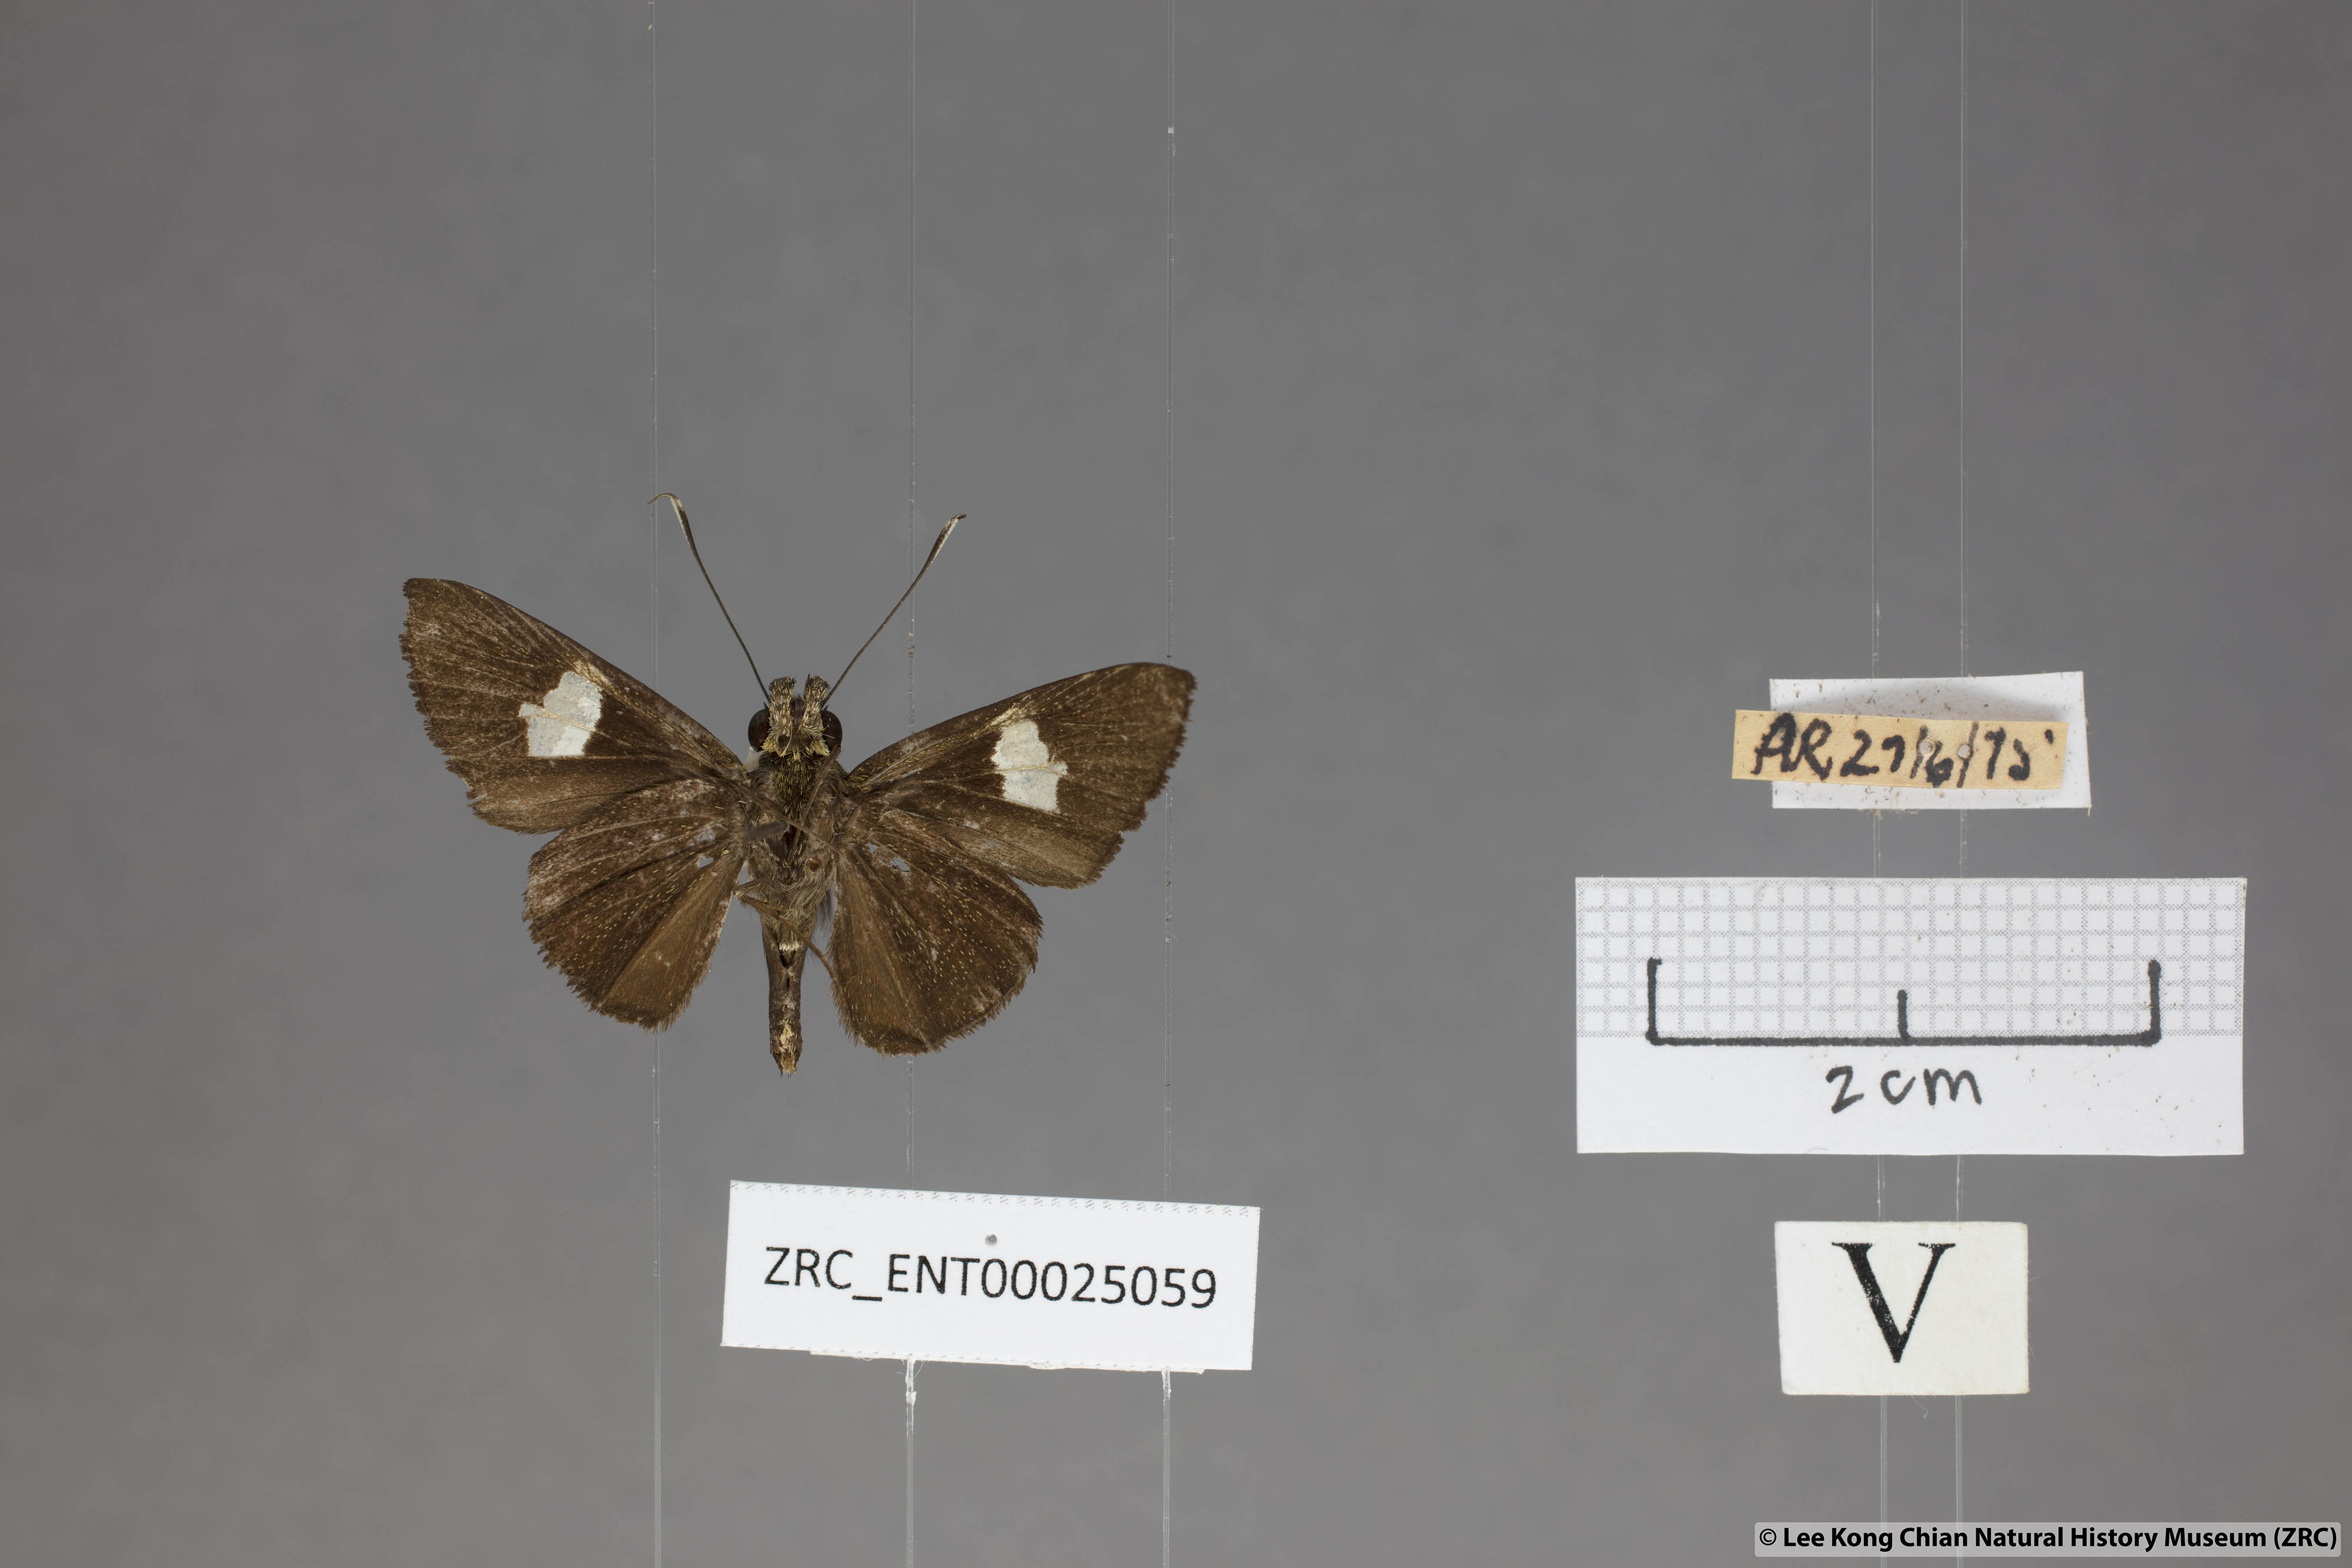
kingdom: Animalia
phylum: Arthropoda
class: Insecta
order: Lepidoptera
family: Hesperiidae
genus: Oerane
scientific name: Oerane microthyrus
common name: White club flitter
